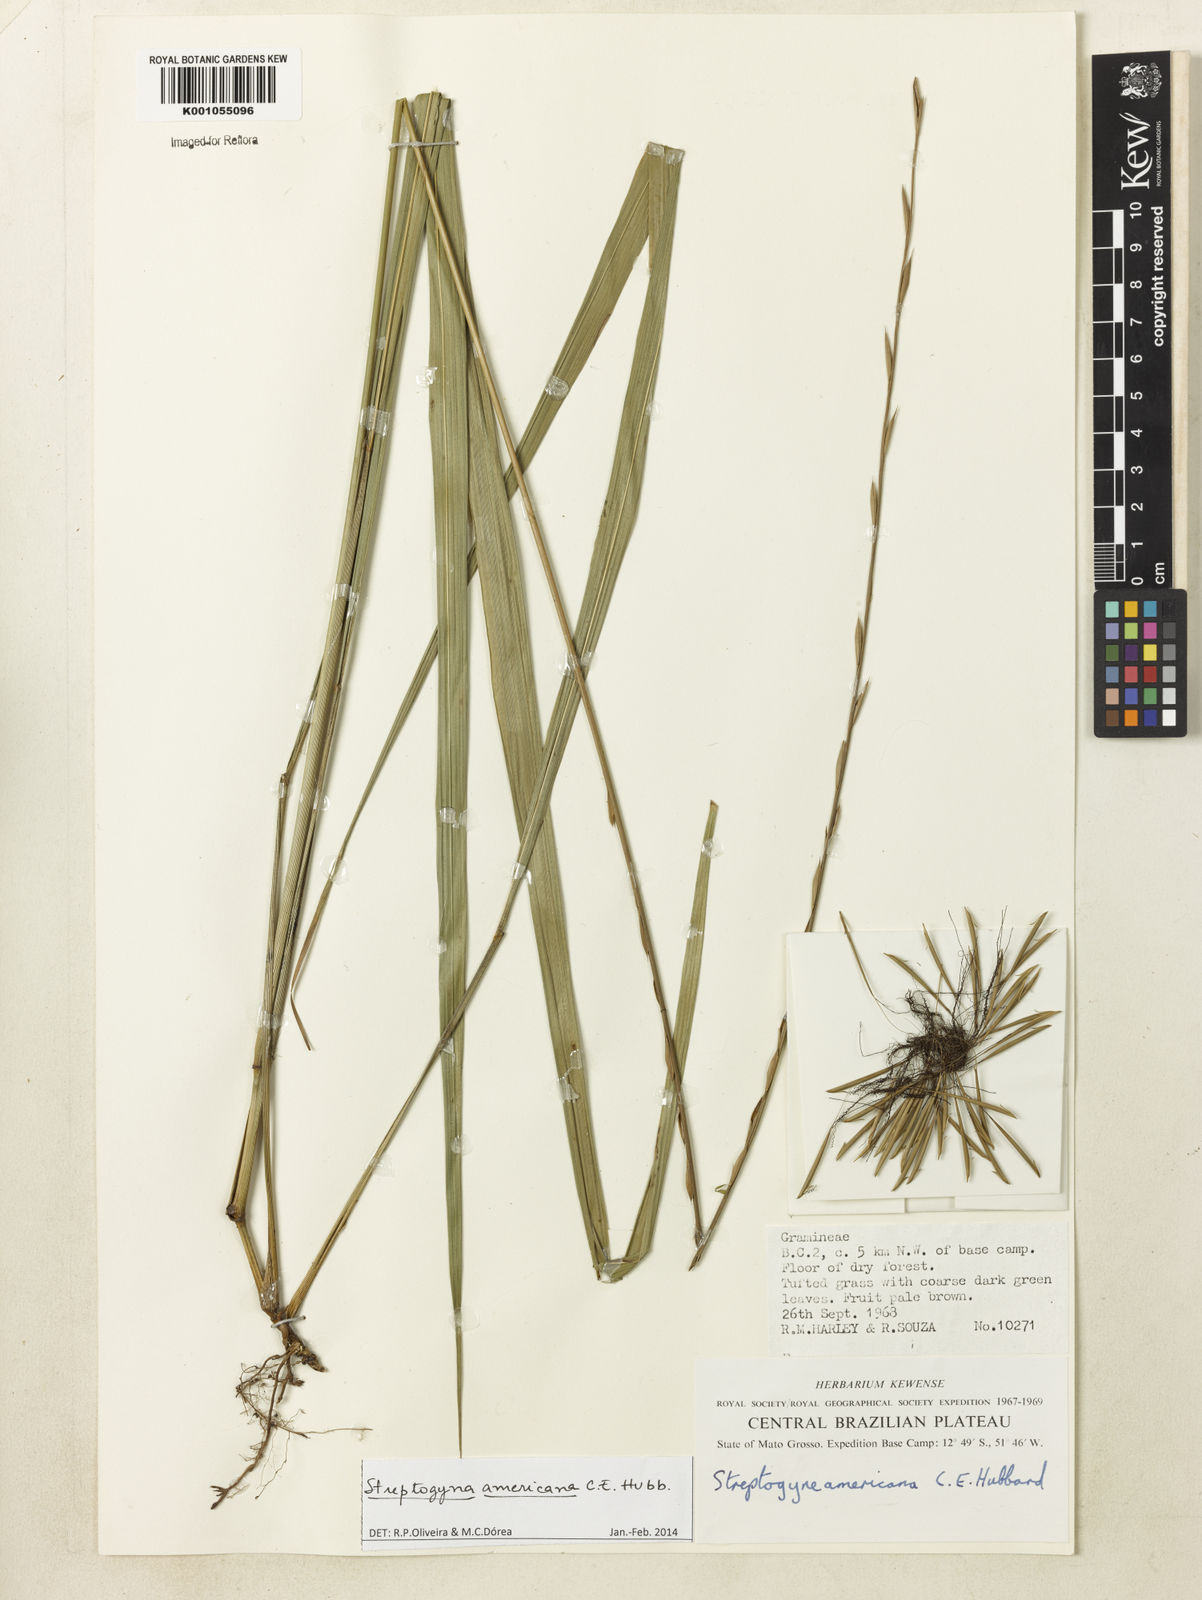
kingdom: Plantae
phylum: Tracheophyta
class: Liliopsida
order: Poales
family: Poaceae
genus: Streptogyna
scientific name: Streptogyna americana
